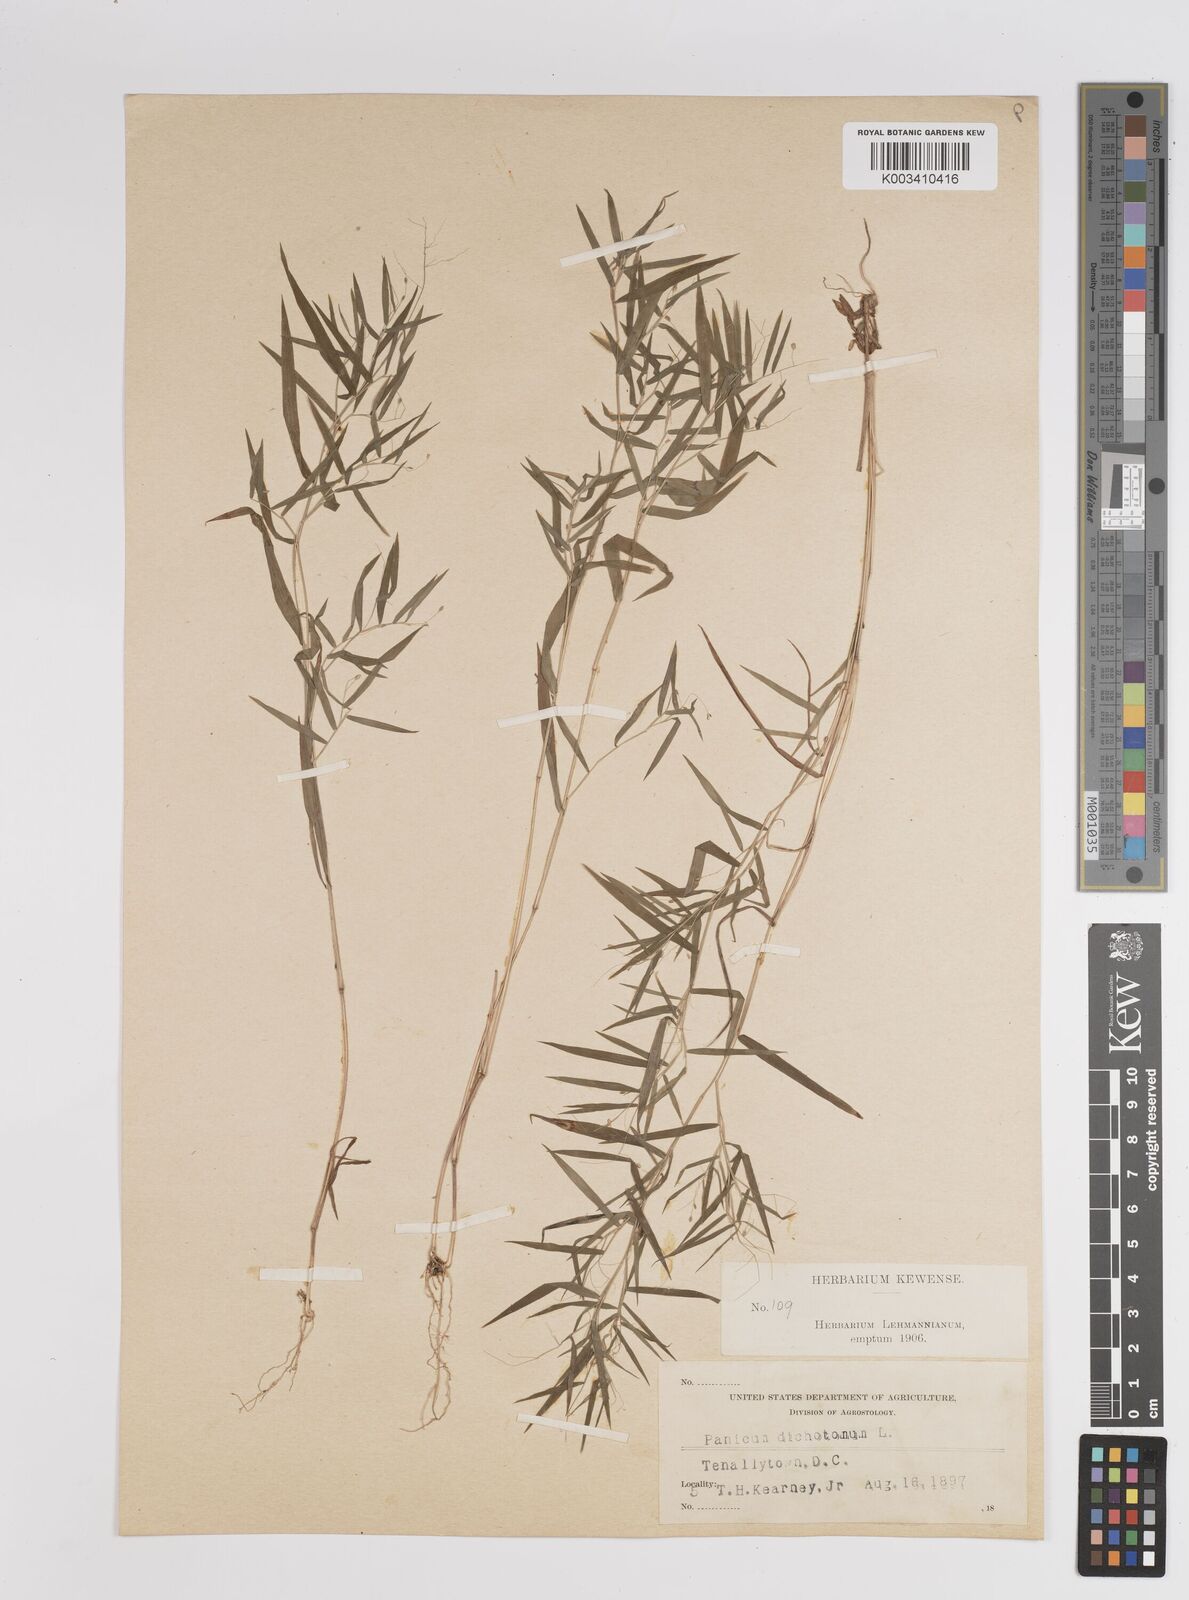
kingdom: Plantae
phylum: Tracheophyta
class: Liliopsida
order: Poales
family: Poaceae
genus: Dichanthelium
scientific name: Dichanthelium dichotomum
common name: Cypress panicgrass
